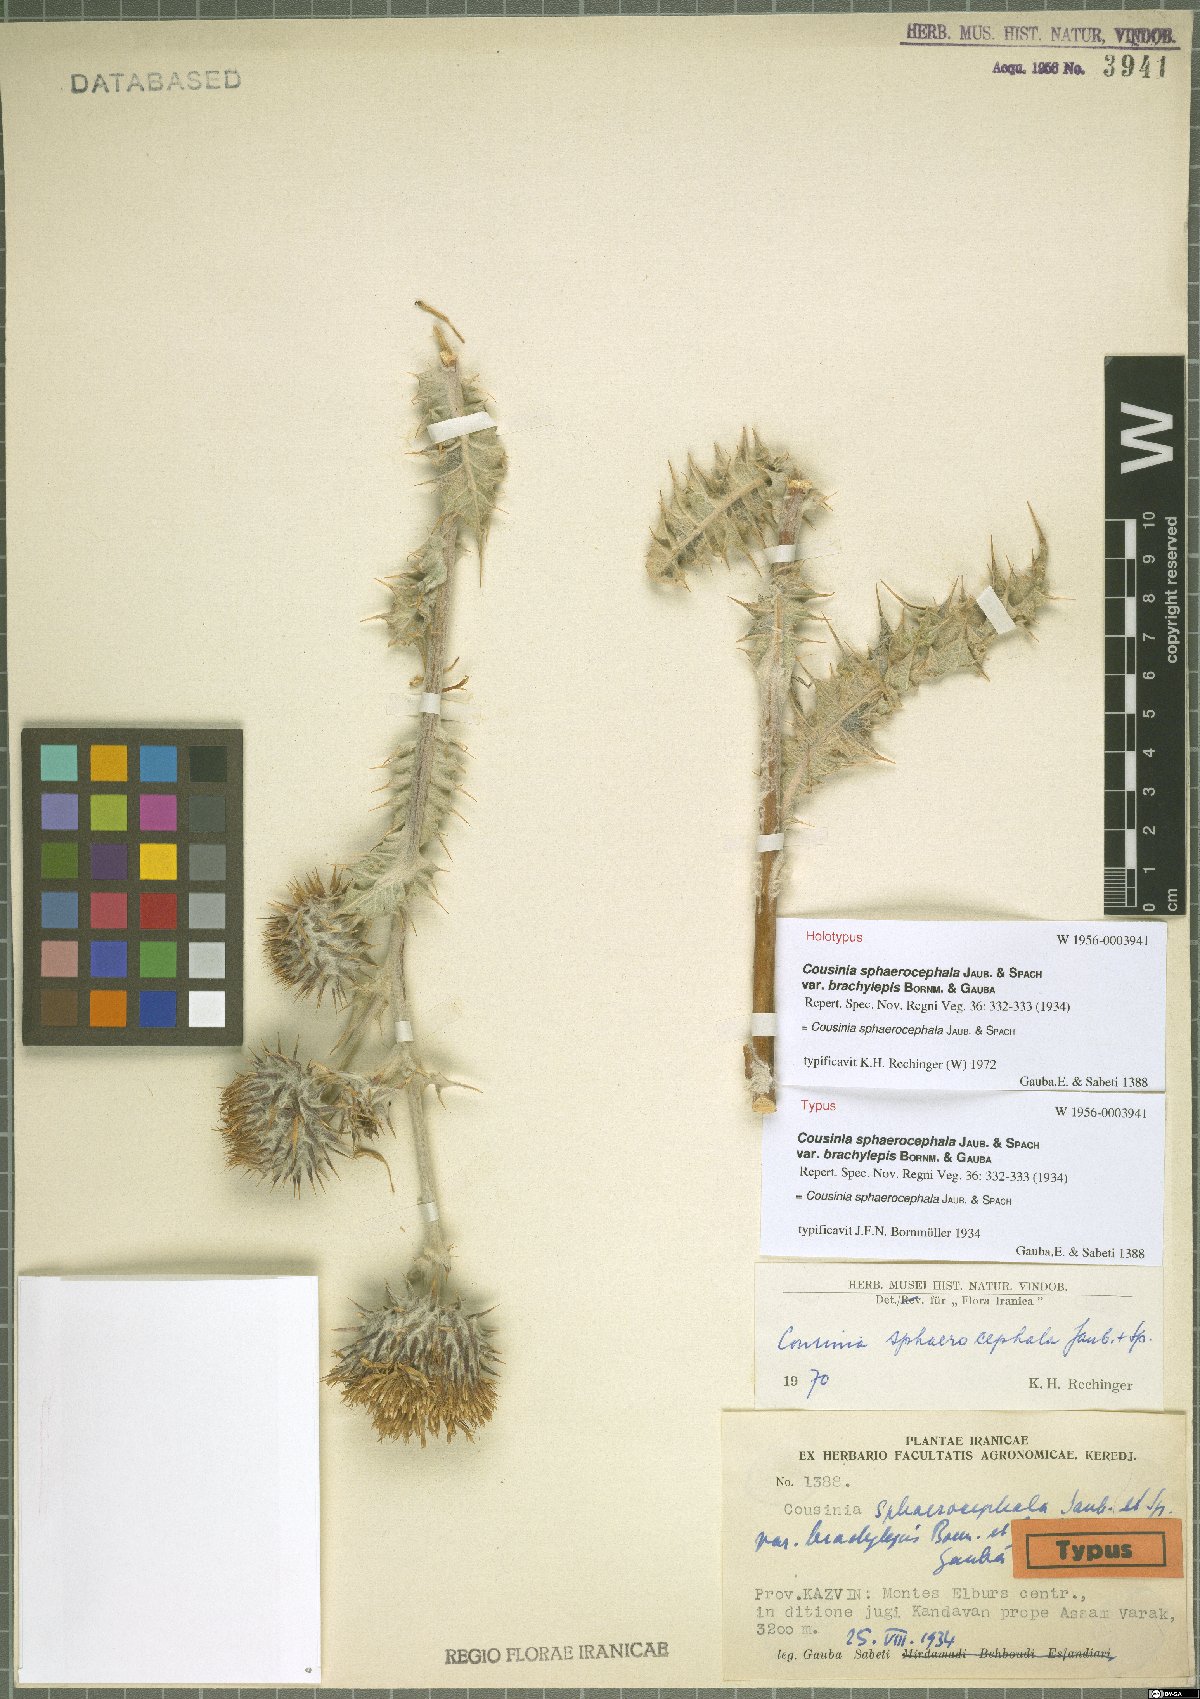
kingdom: Plantae
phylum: Tracheophyta
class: Magnoliopsida
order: Asterales
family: Asteraceae
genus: Cousinia
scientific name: Cousinia sphaerocephala
